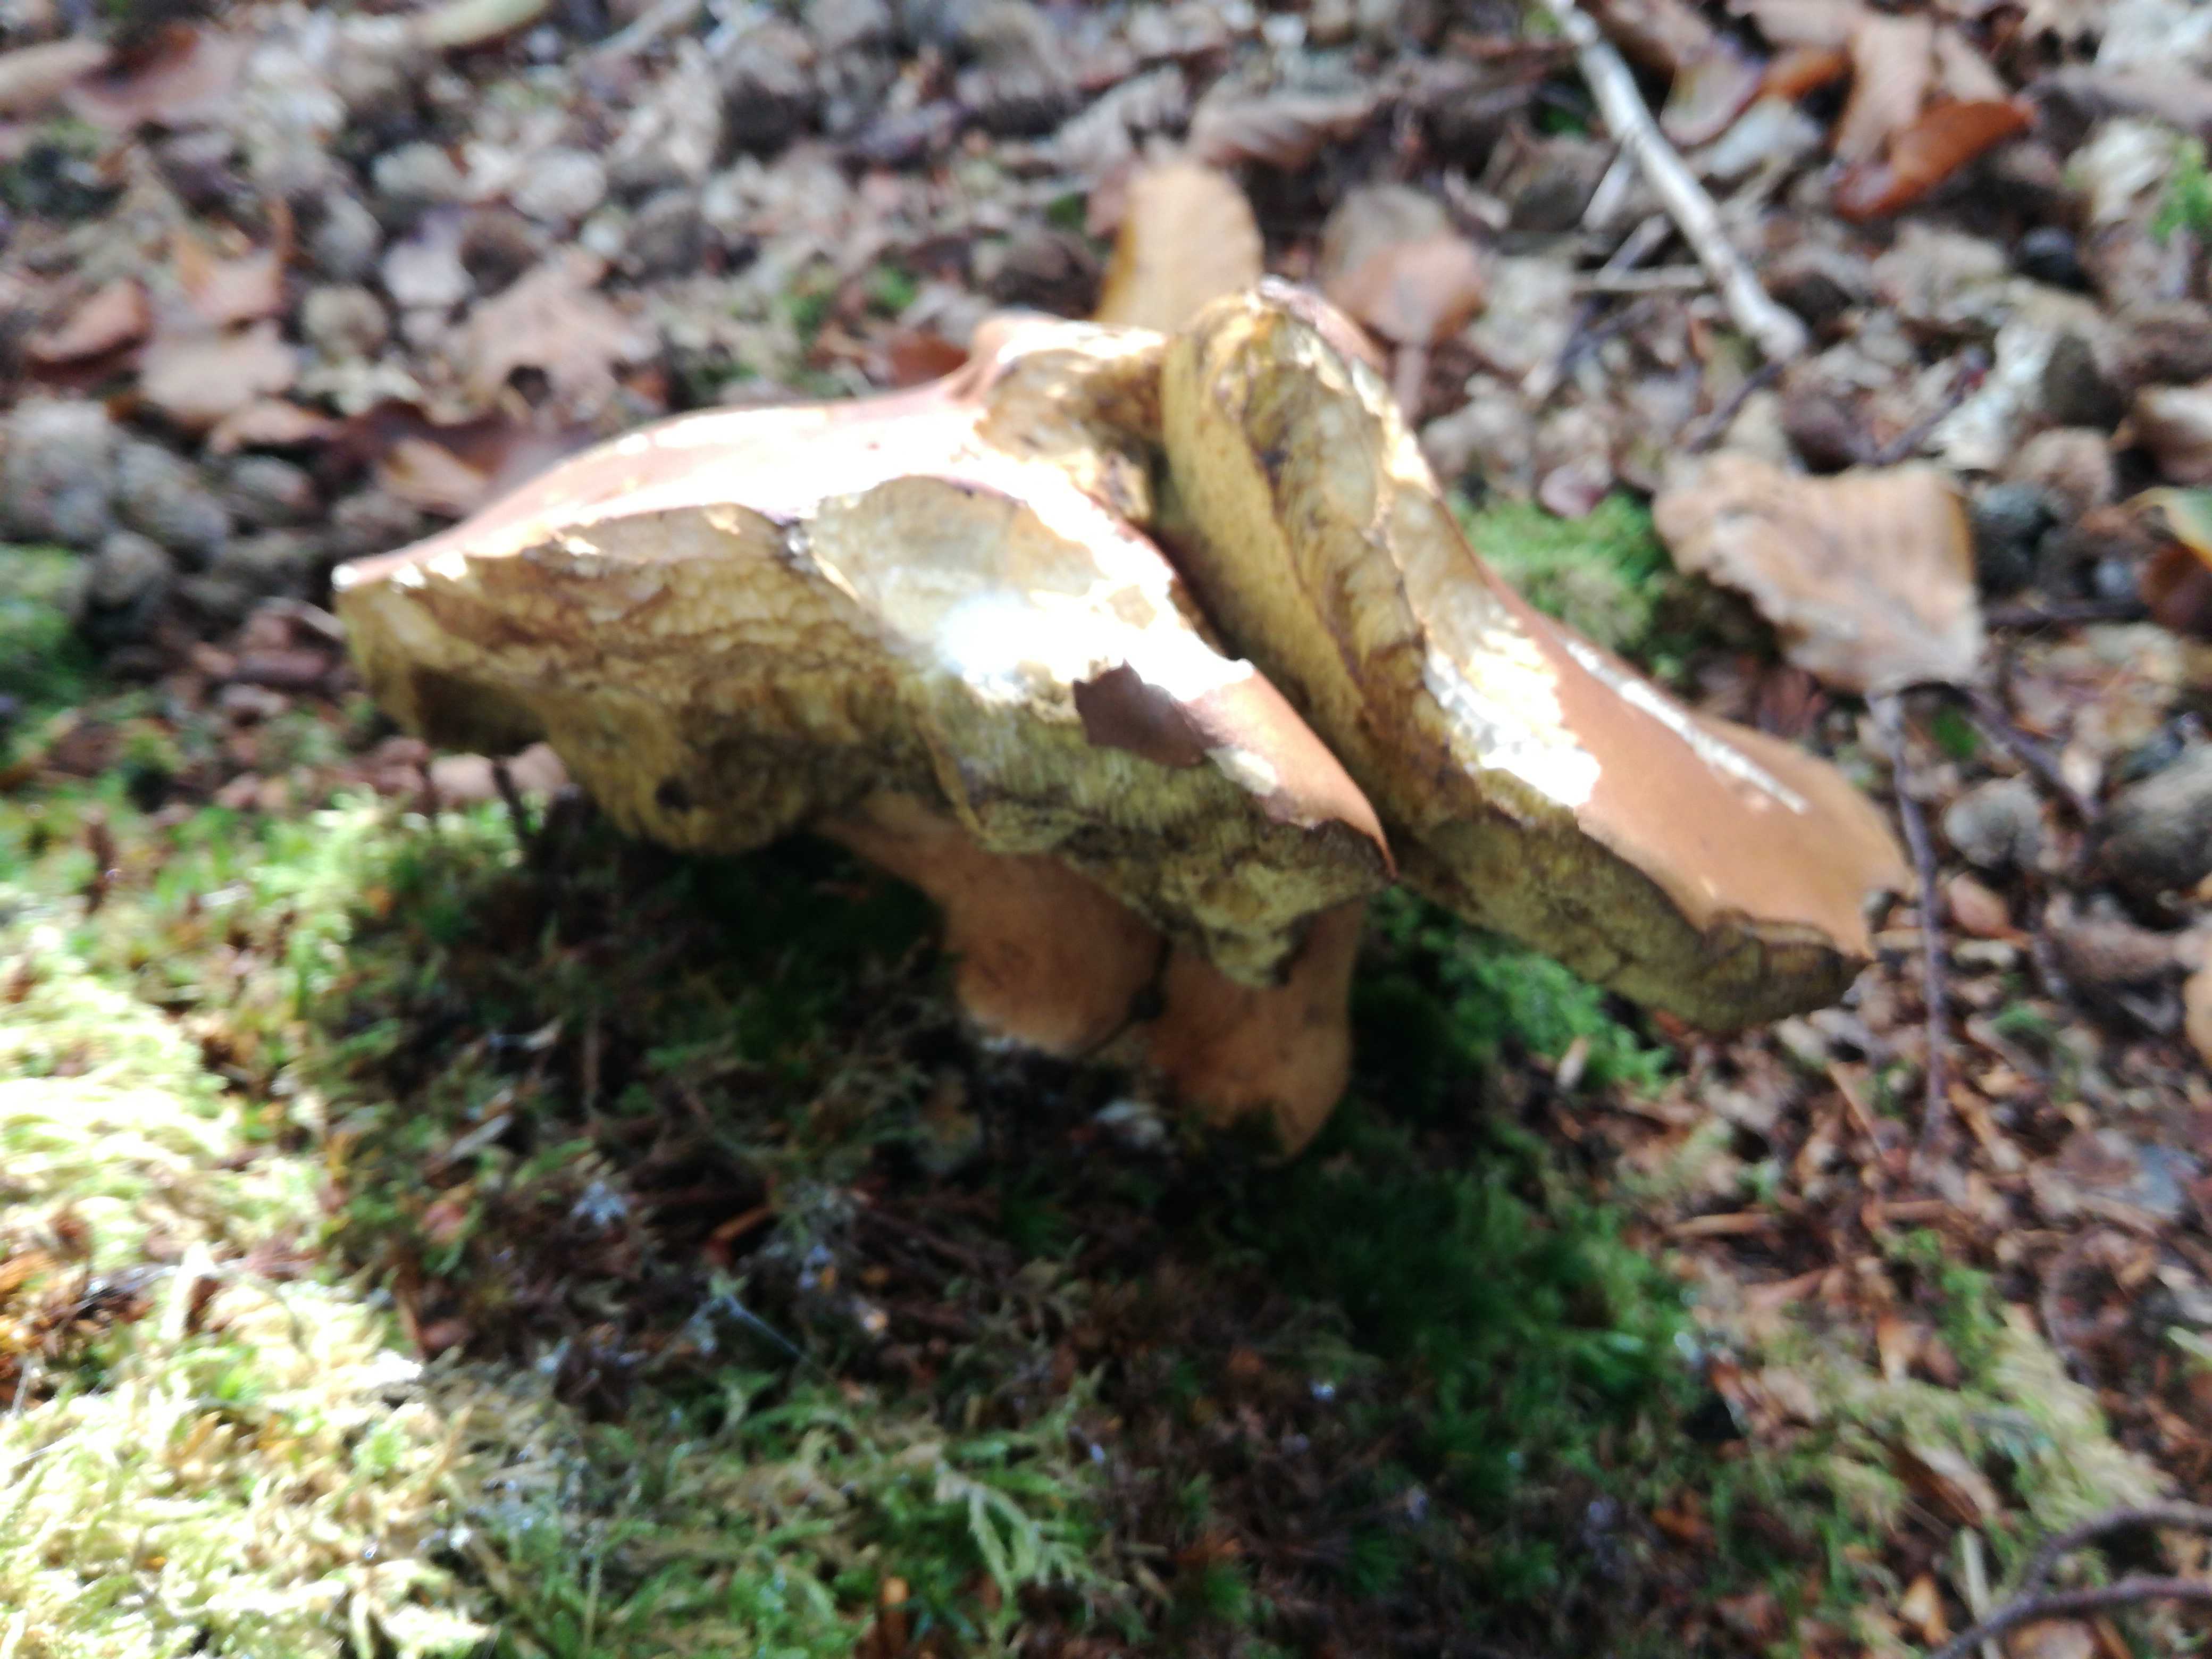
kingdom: Fungi
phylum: Basidiomycota
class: Agaricomycetes
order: Boletales
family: Boletaceae
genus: Imleria
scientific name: Imleria badia
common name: brunstokket rørhat
